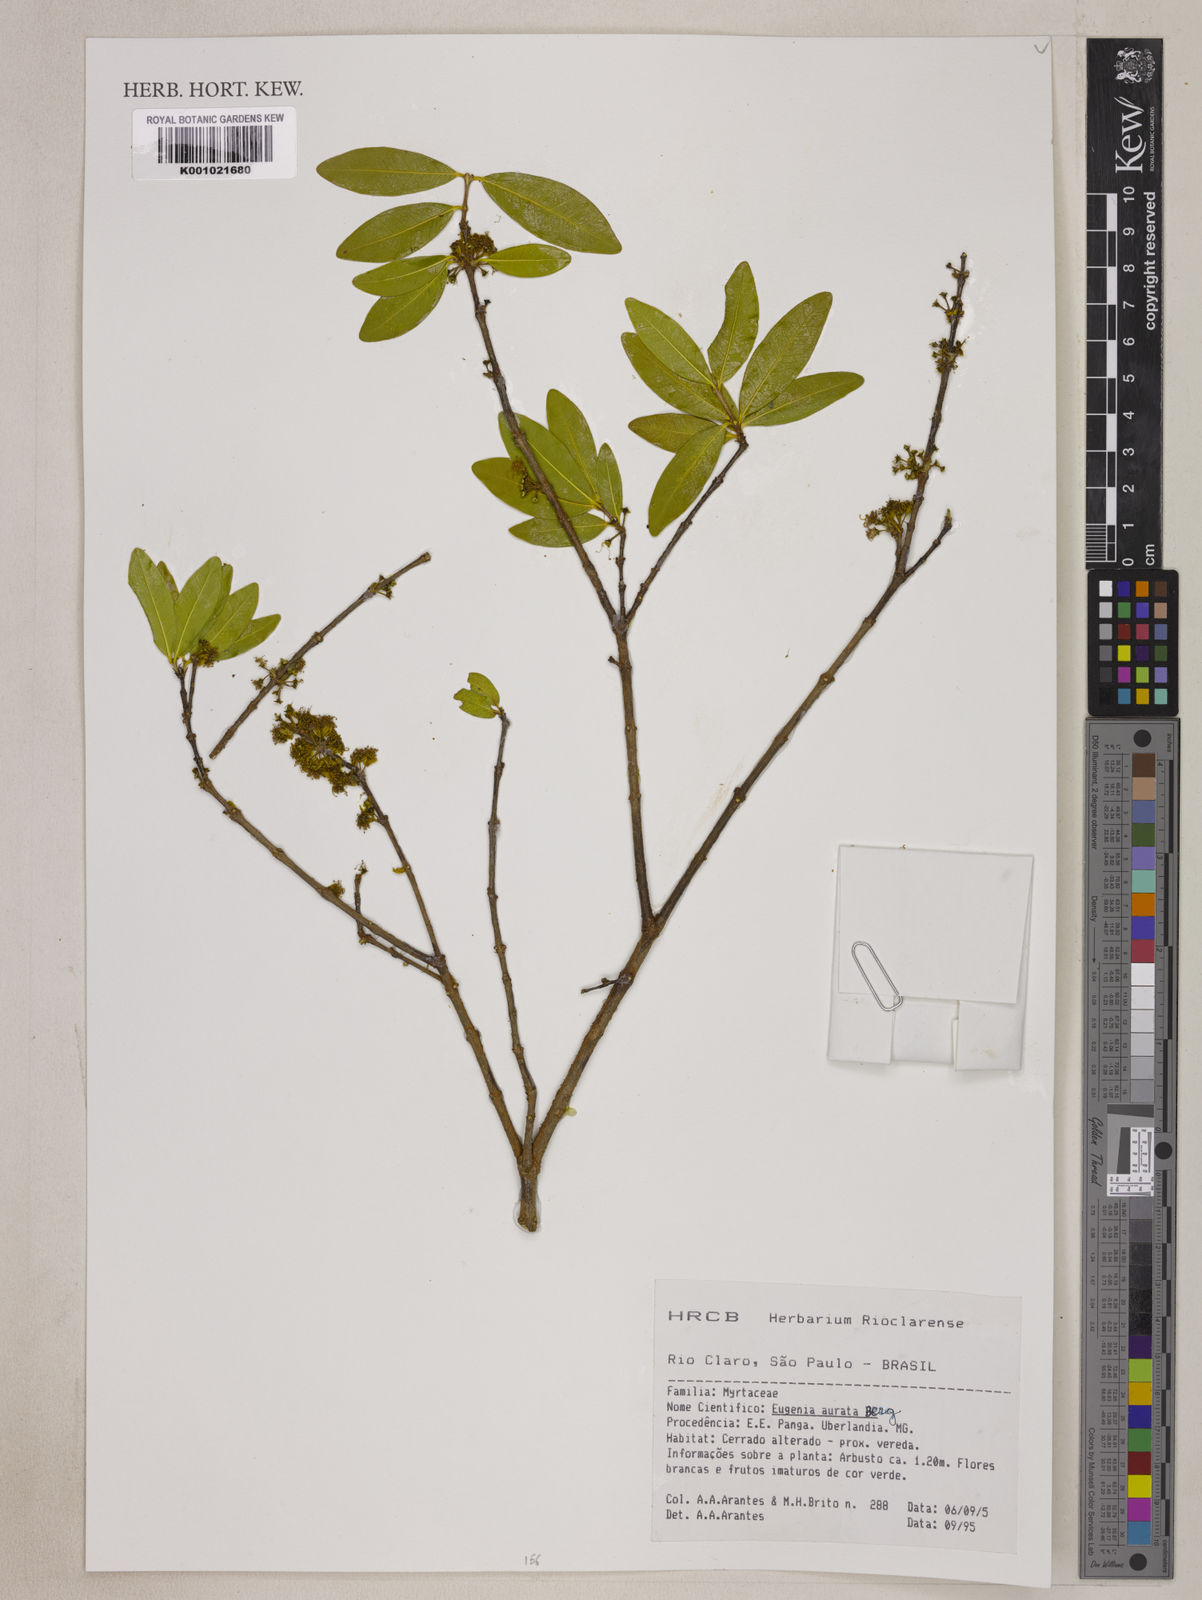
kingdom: Plantae
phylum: Tracheophyta
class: Magnoliopsida
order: Myrtales
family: Myrtaceae
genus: Eugenia
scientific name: Eugenia aurata
